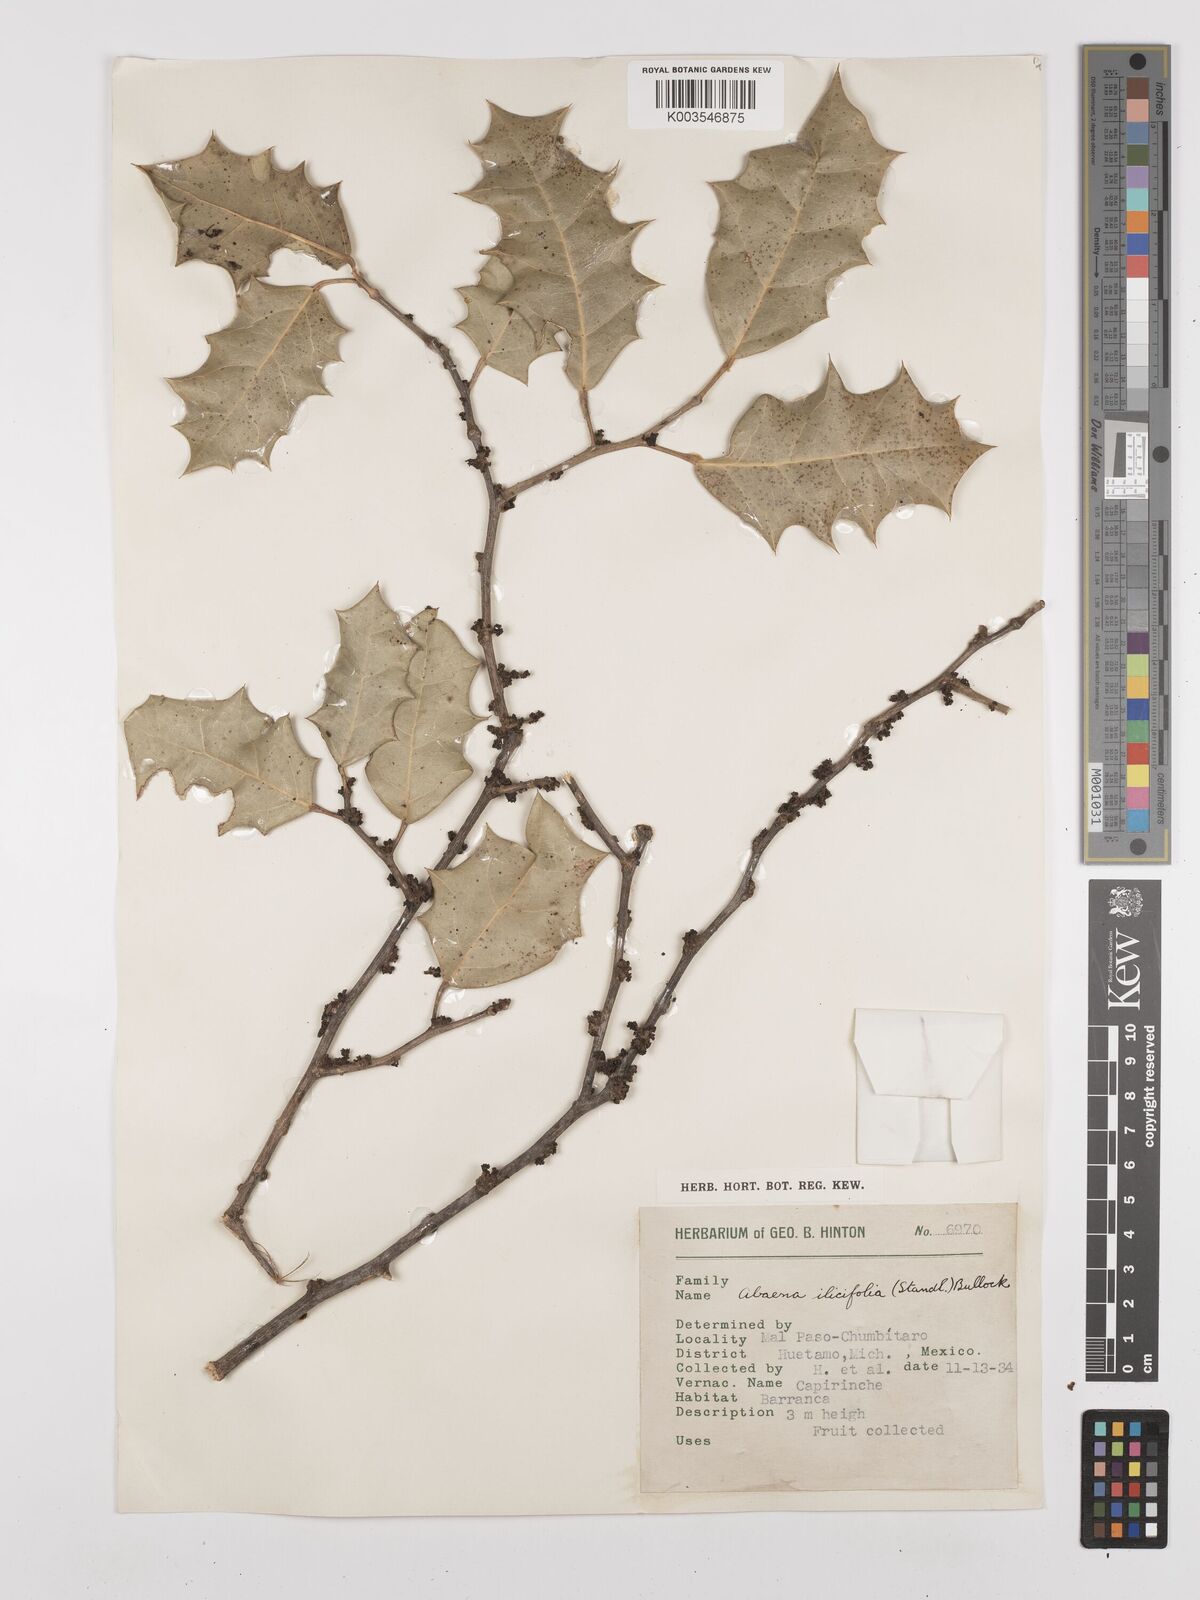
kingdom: Plantae
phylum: Tracheophyta
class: Magnoliopsida
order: Ranunculales
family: Menispermaceae
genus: Hyperbaena
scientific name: Hyperbaena ilicifolia
